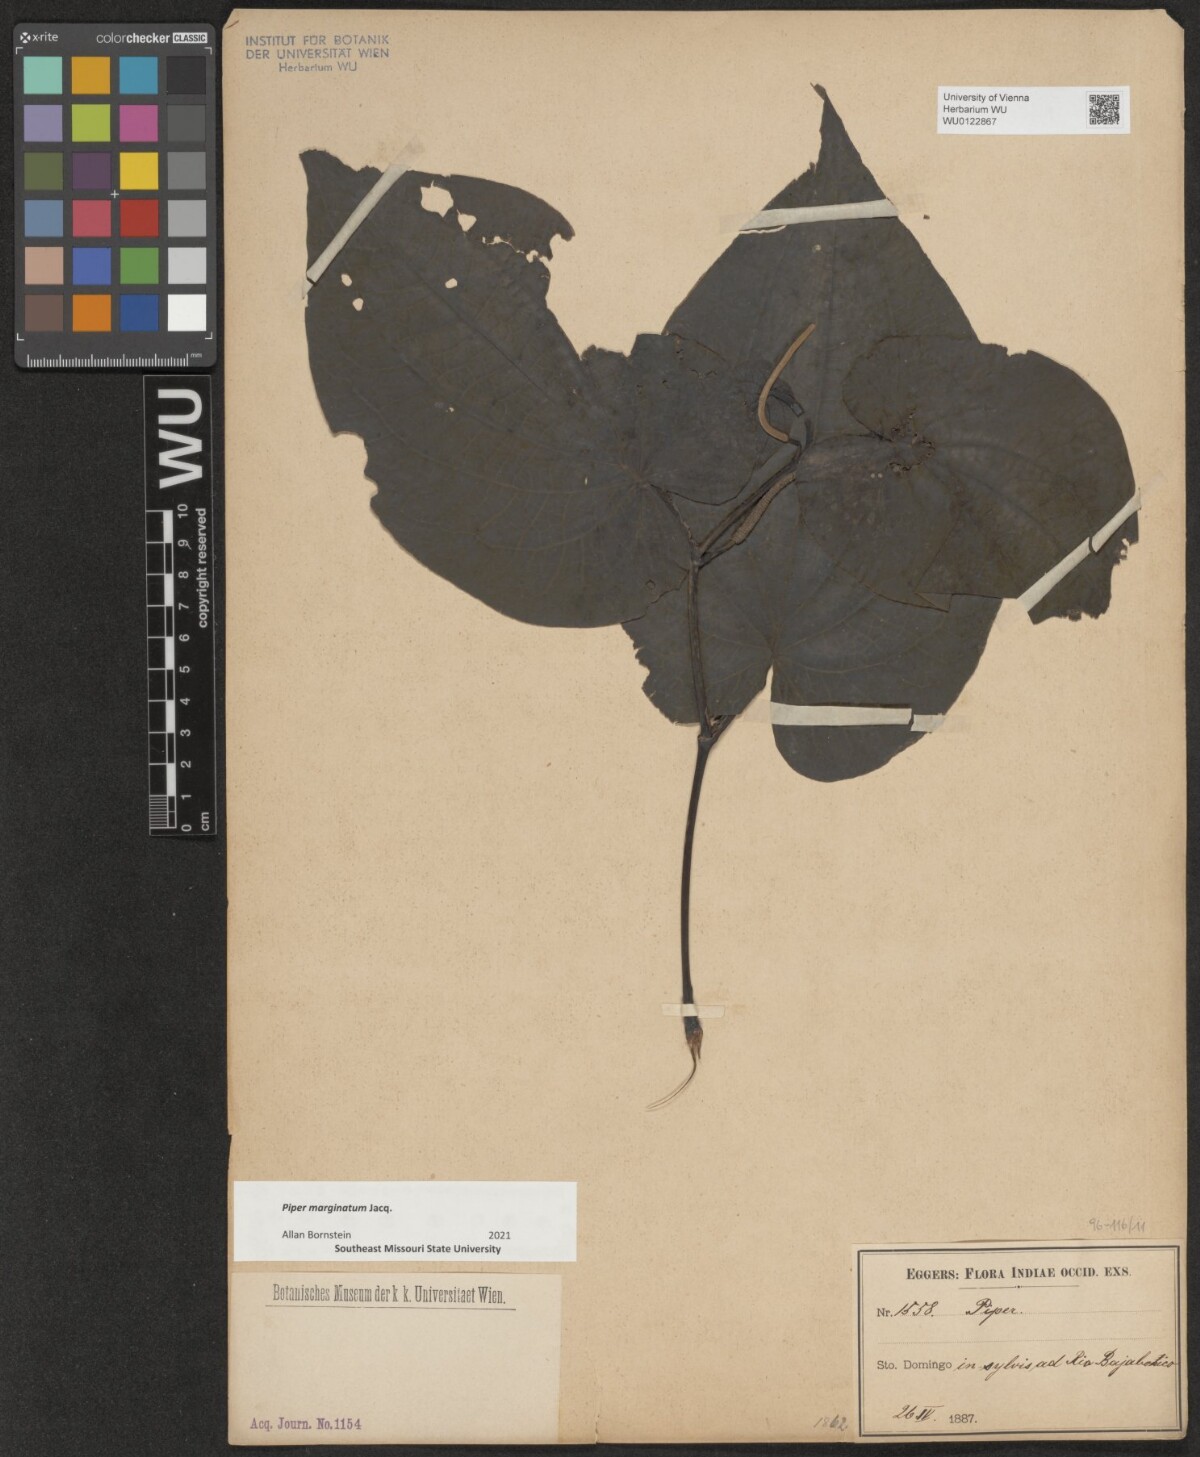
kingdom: Plantae
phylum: Tracheophyta
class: Magnoliopsida
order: Piperales
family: Piperaceae
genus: Piper
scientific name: Piper marginatum
